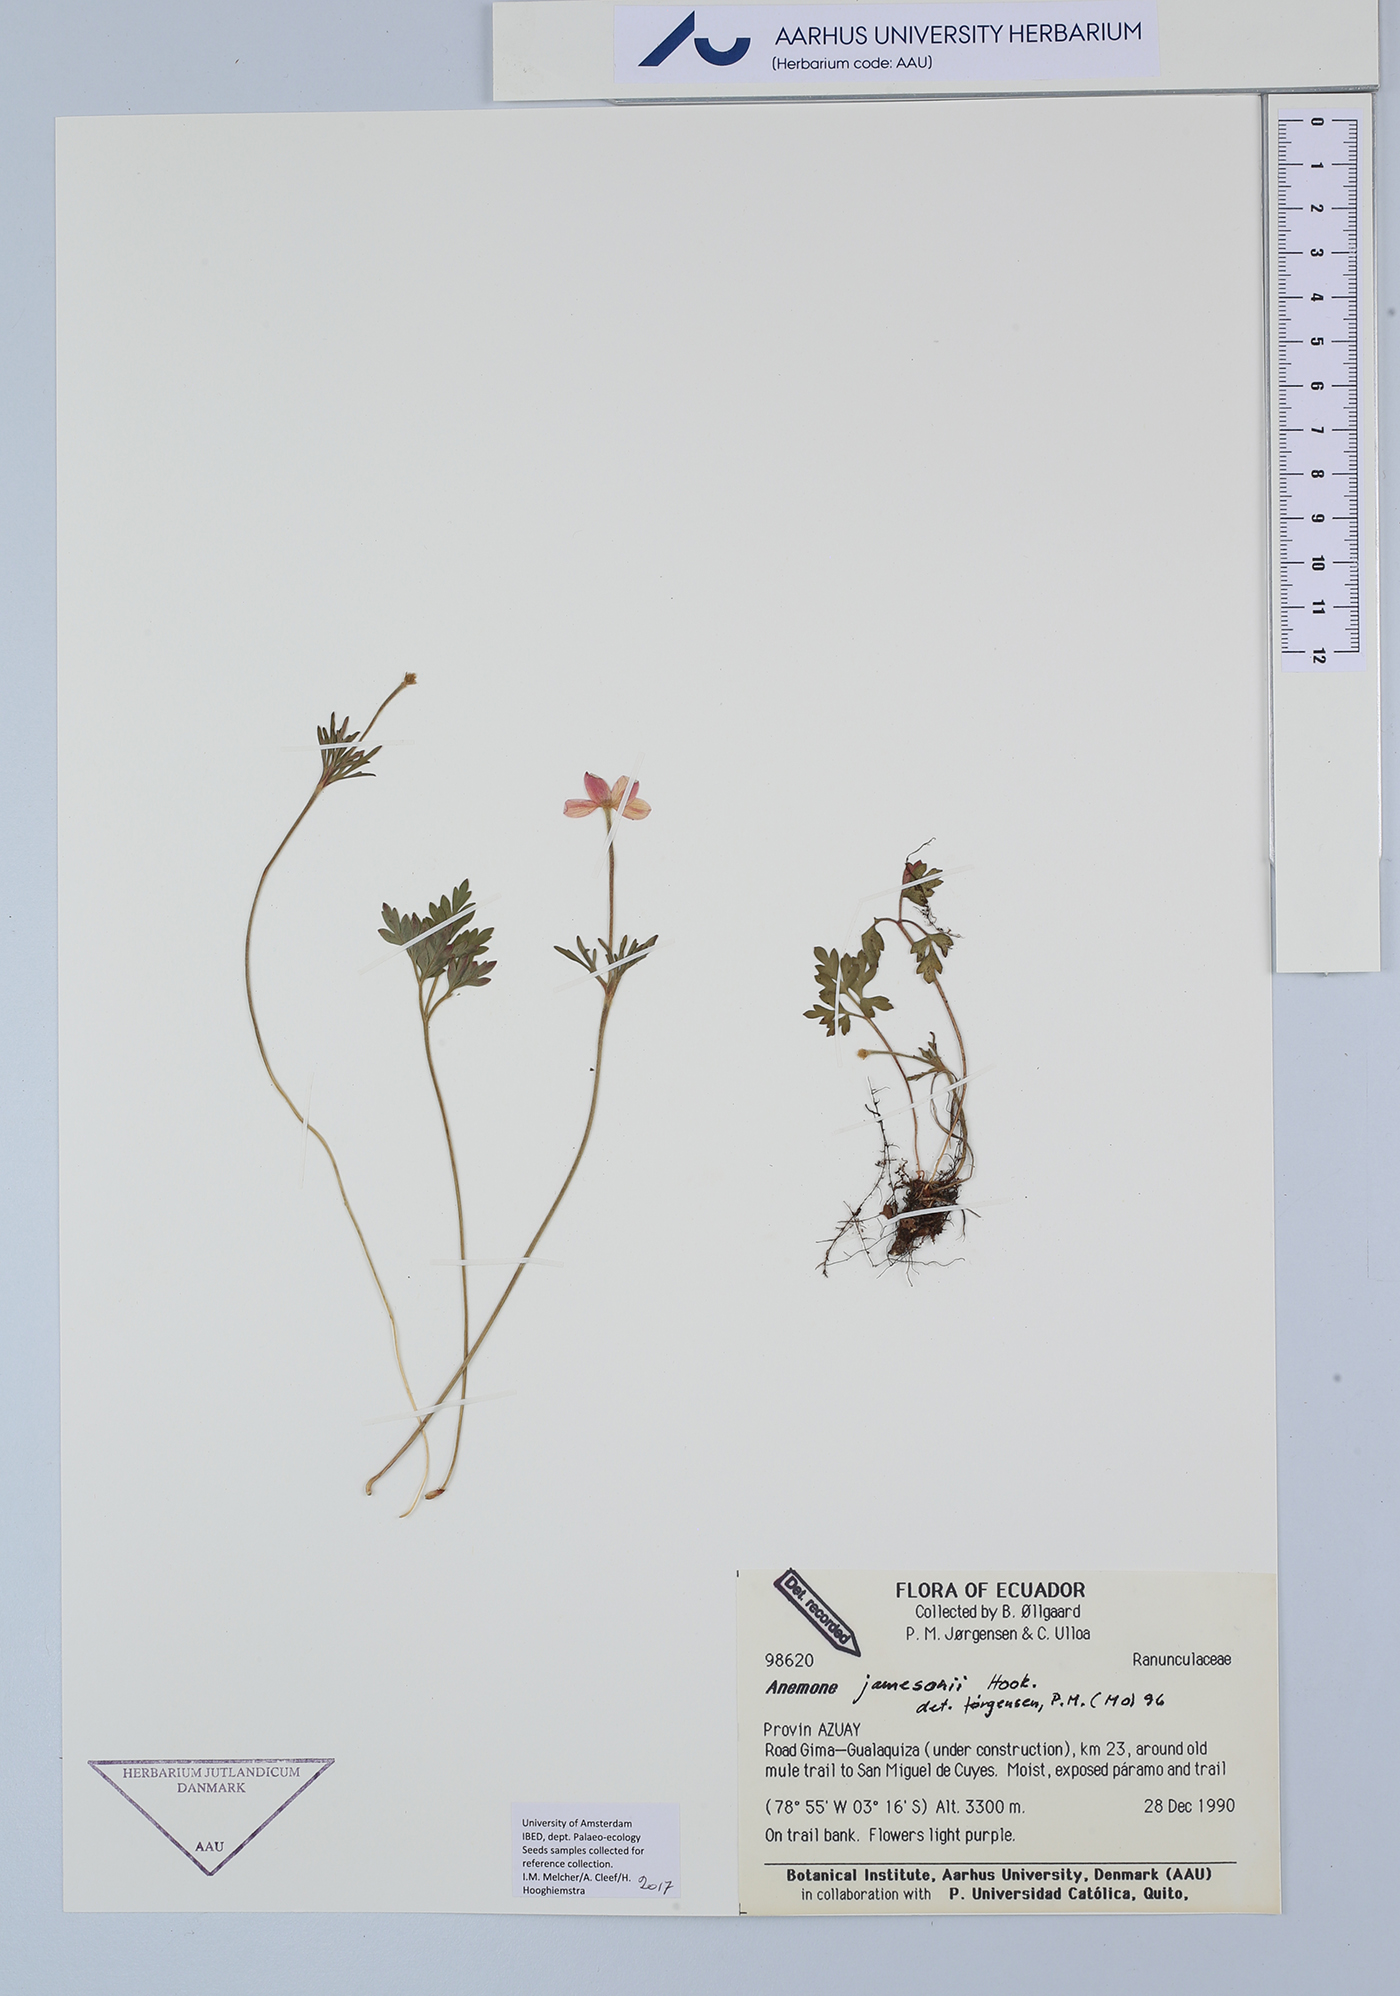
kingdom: Plantae
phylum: Tracheophyta
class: Magnoliopsida
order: Ranunculales
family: Ranunculaceae
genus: Anemone
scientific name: Anemone decapetala
